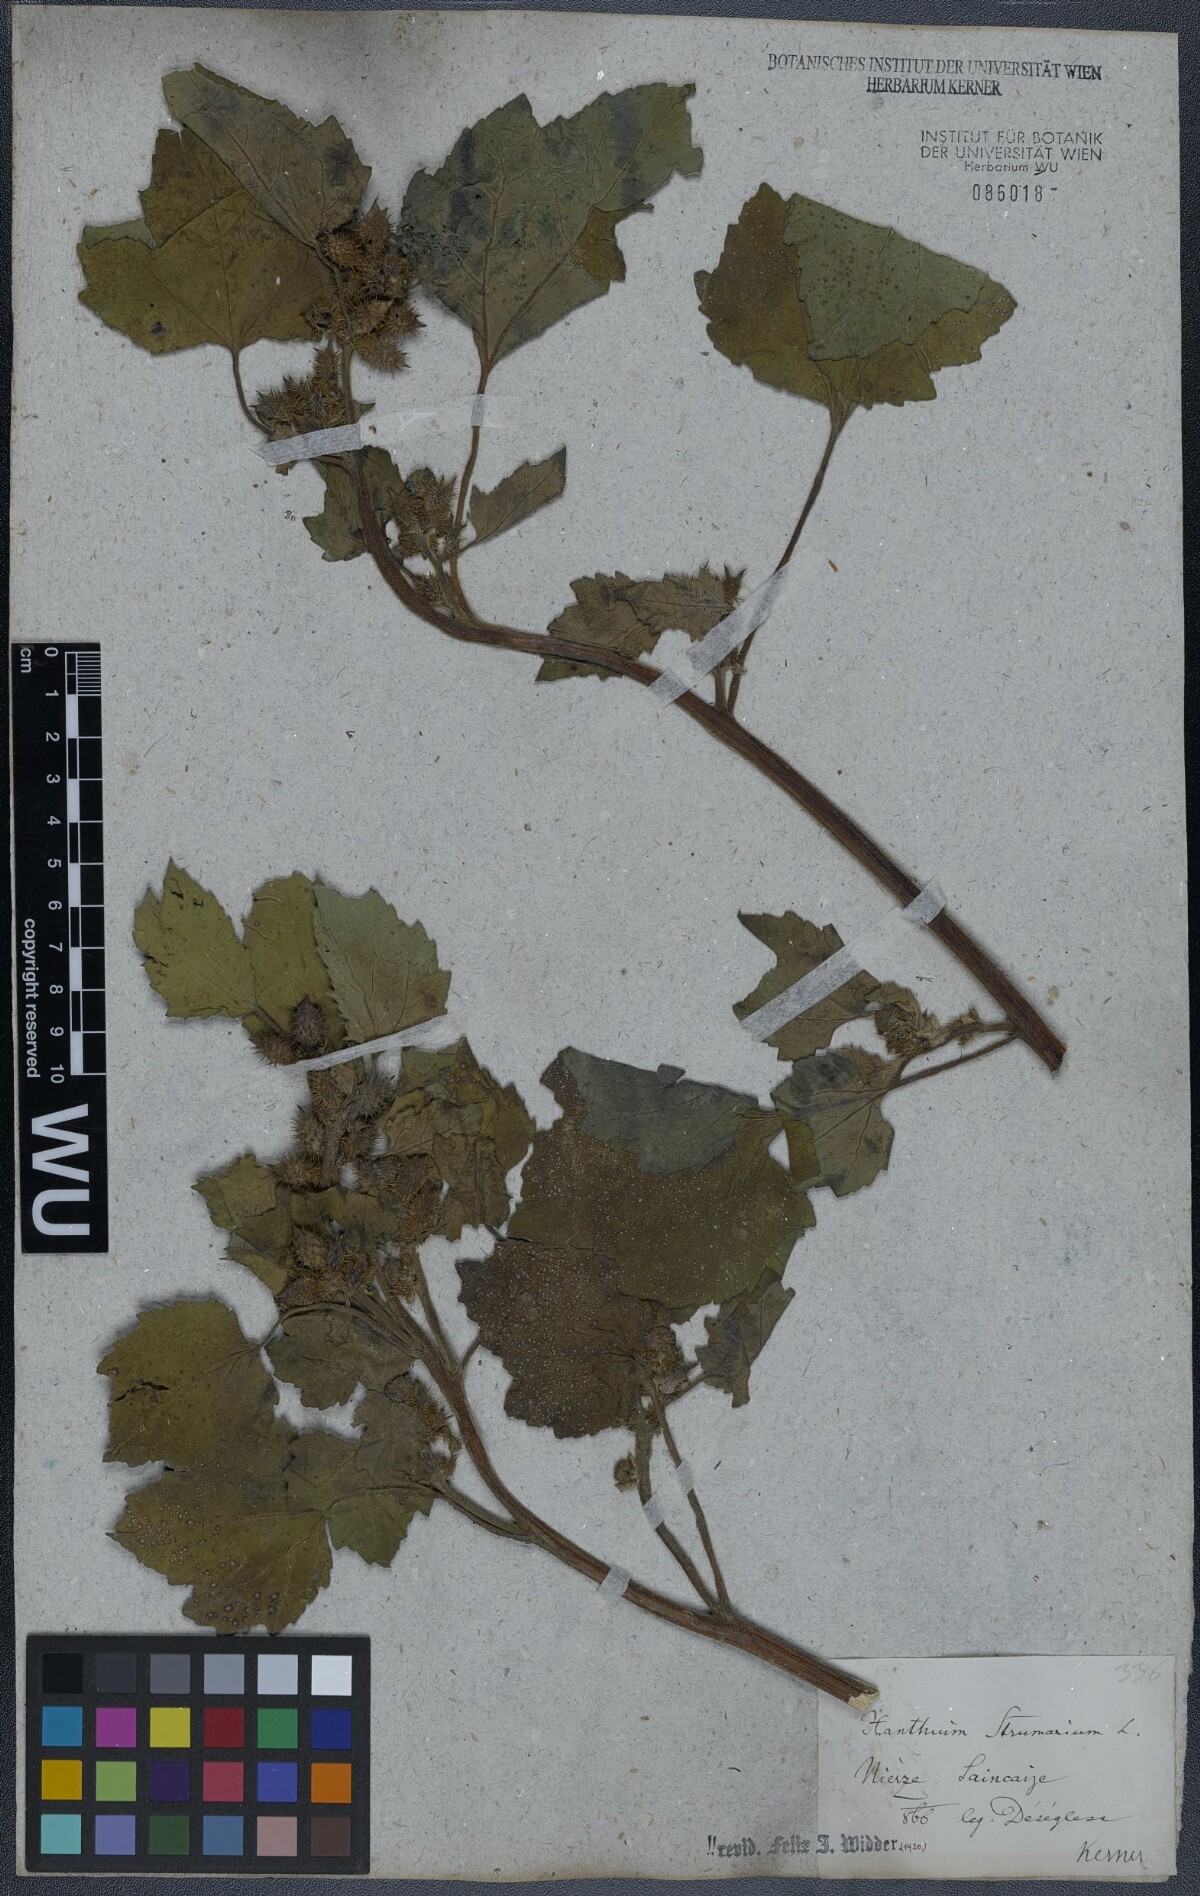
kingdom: Plantae
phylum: Tracheophyta
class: Magnoliopsida
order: Asterales
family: Asteraceae
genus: Xanthium
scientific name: Xanthium strumarium
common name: Rough cocklebur
